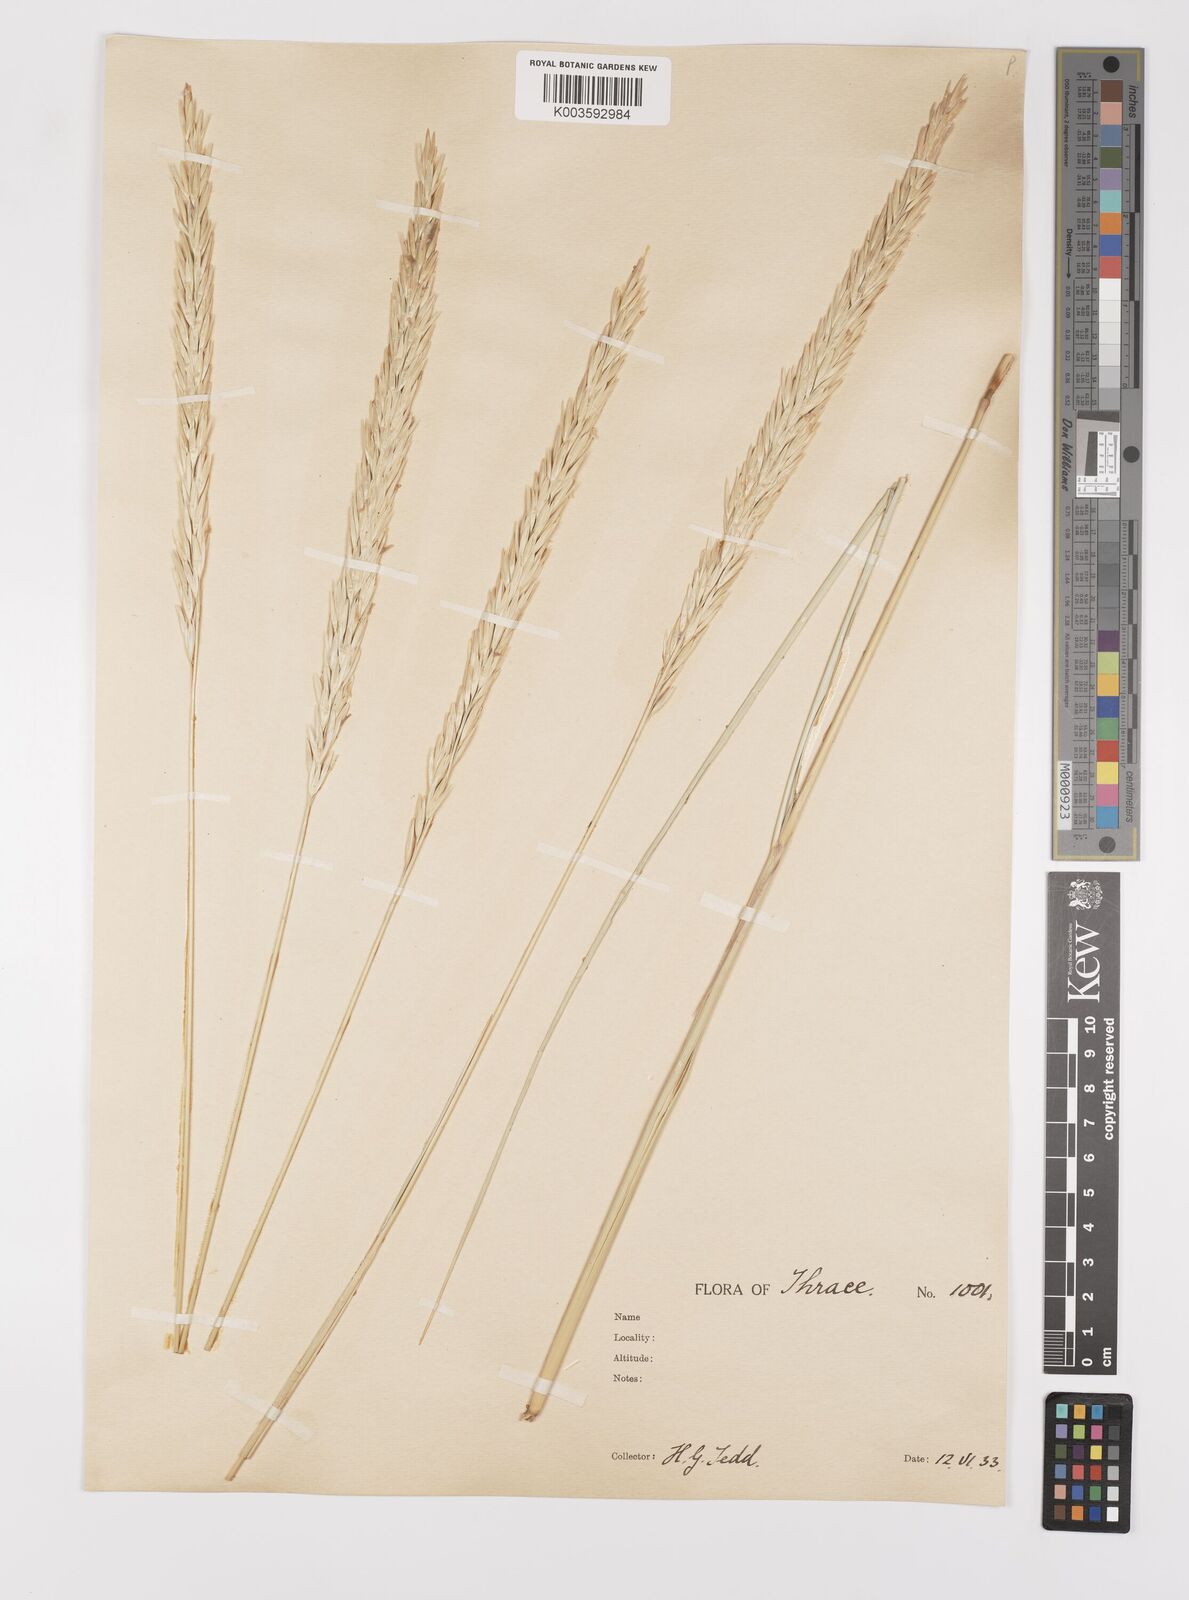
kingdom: Plantae
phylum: Tracheophyta
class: Liliopsida
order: Poales
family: Poaceae
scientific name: Poaceae
